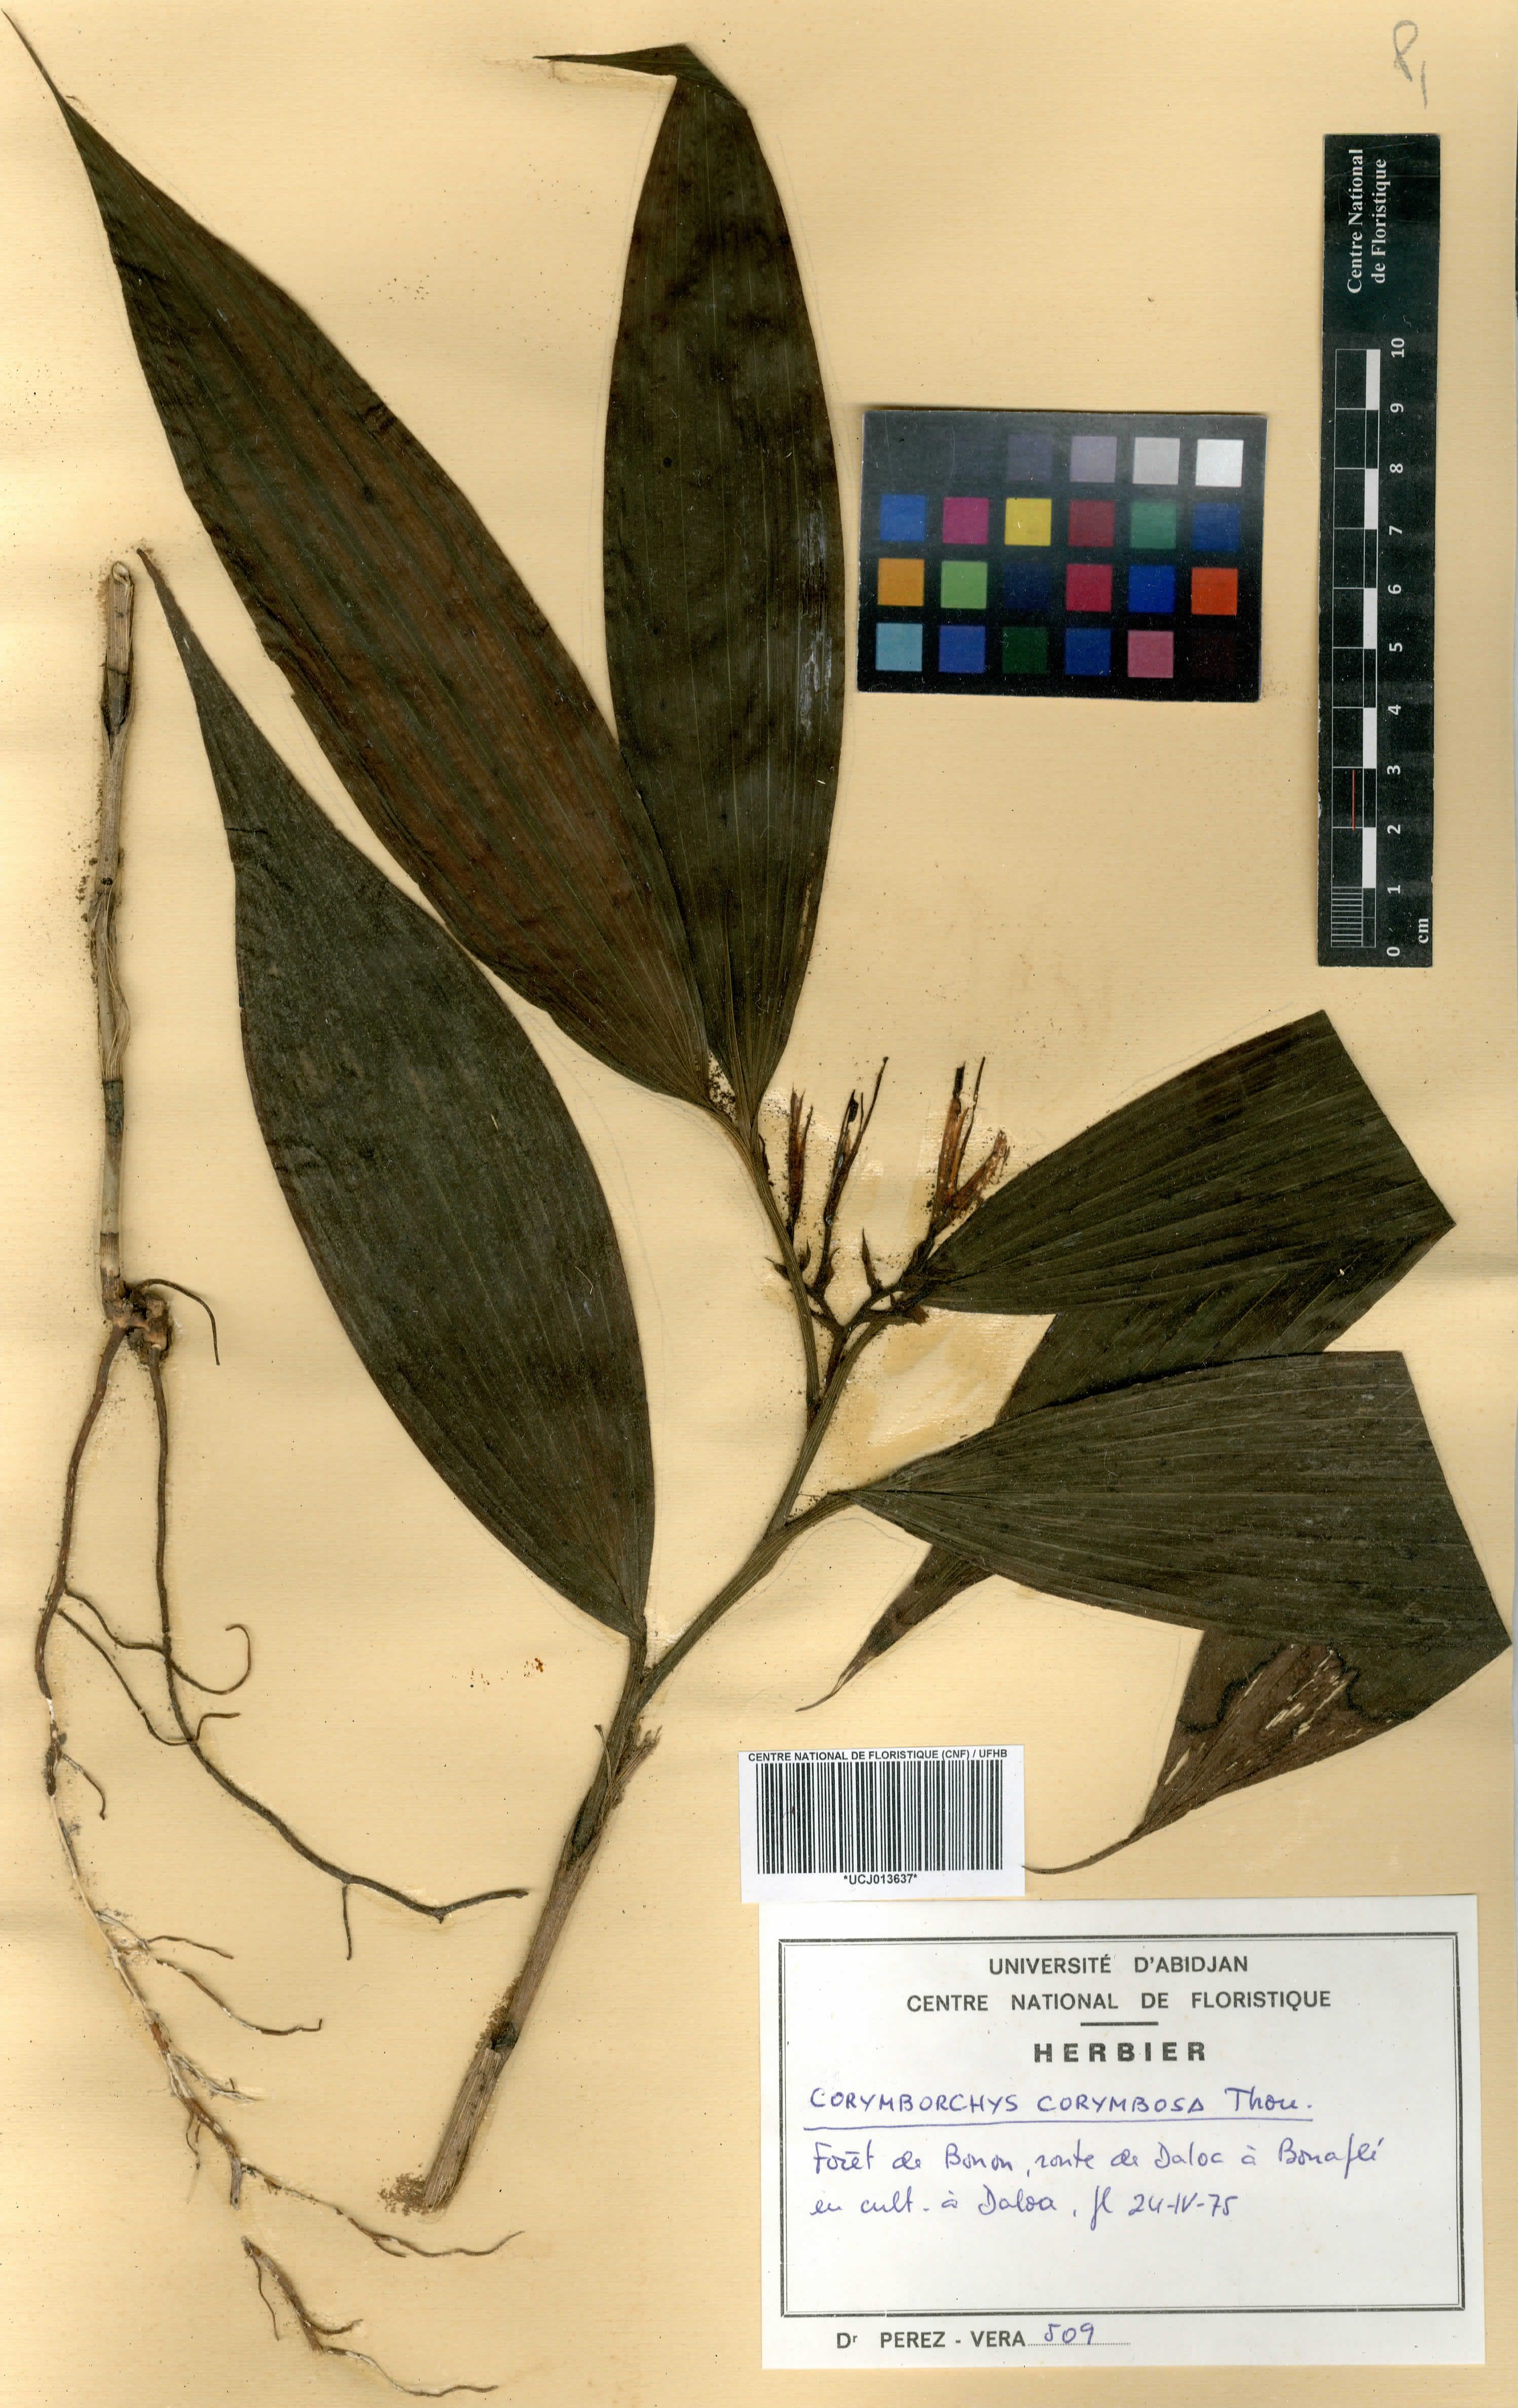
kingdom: Plantae
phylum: Tracheophyta
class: Liliopsida
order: Asparagales
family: Orchidaceae
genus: Corymborkis
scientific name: Corymborkis corymbis
